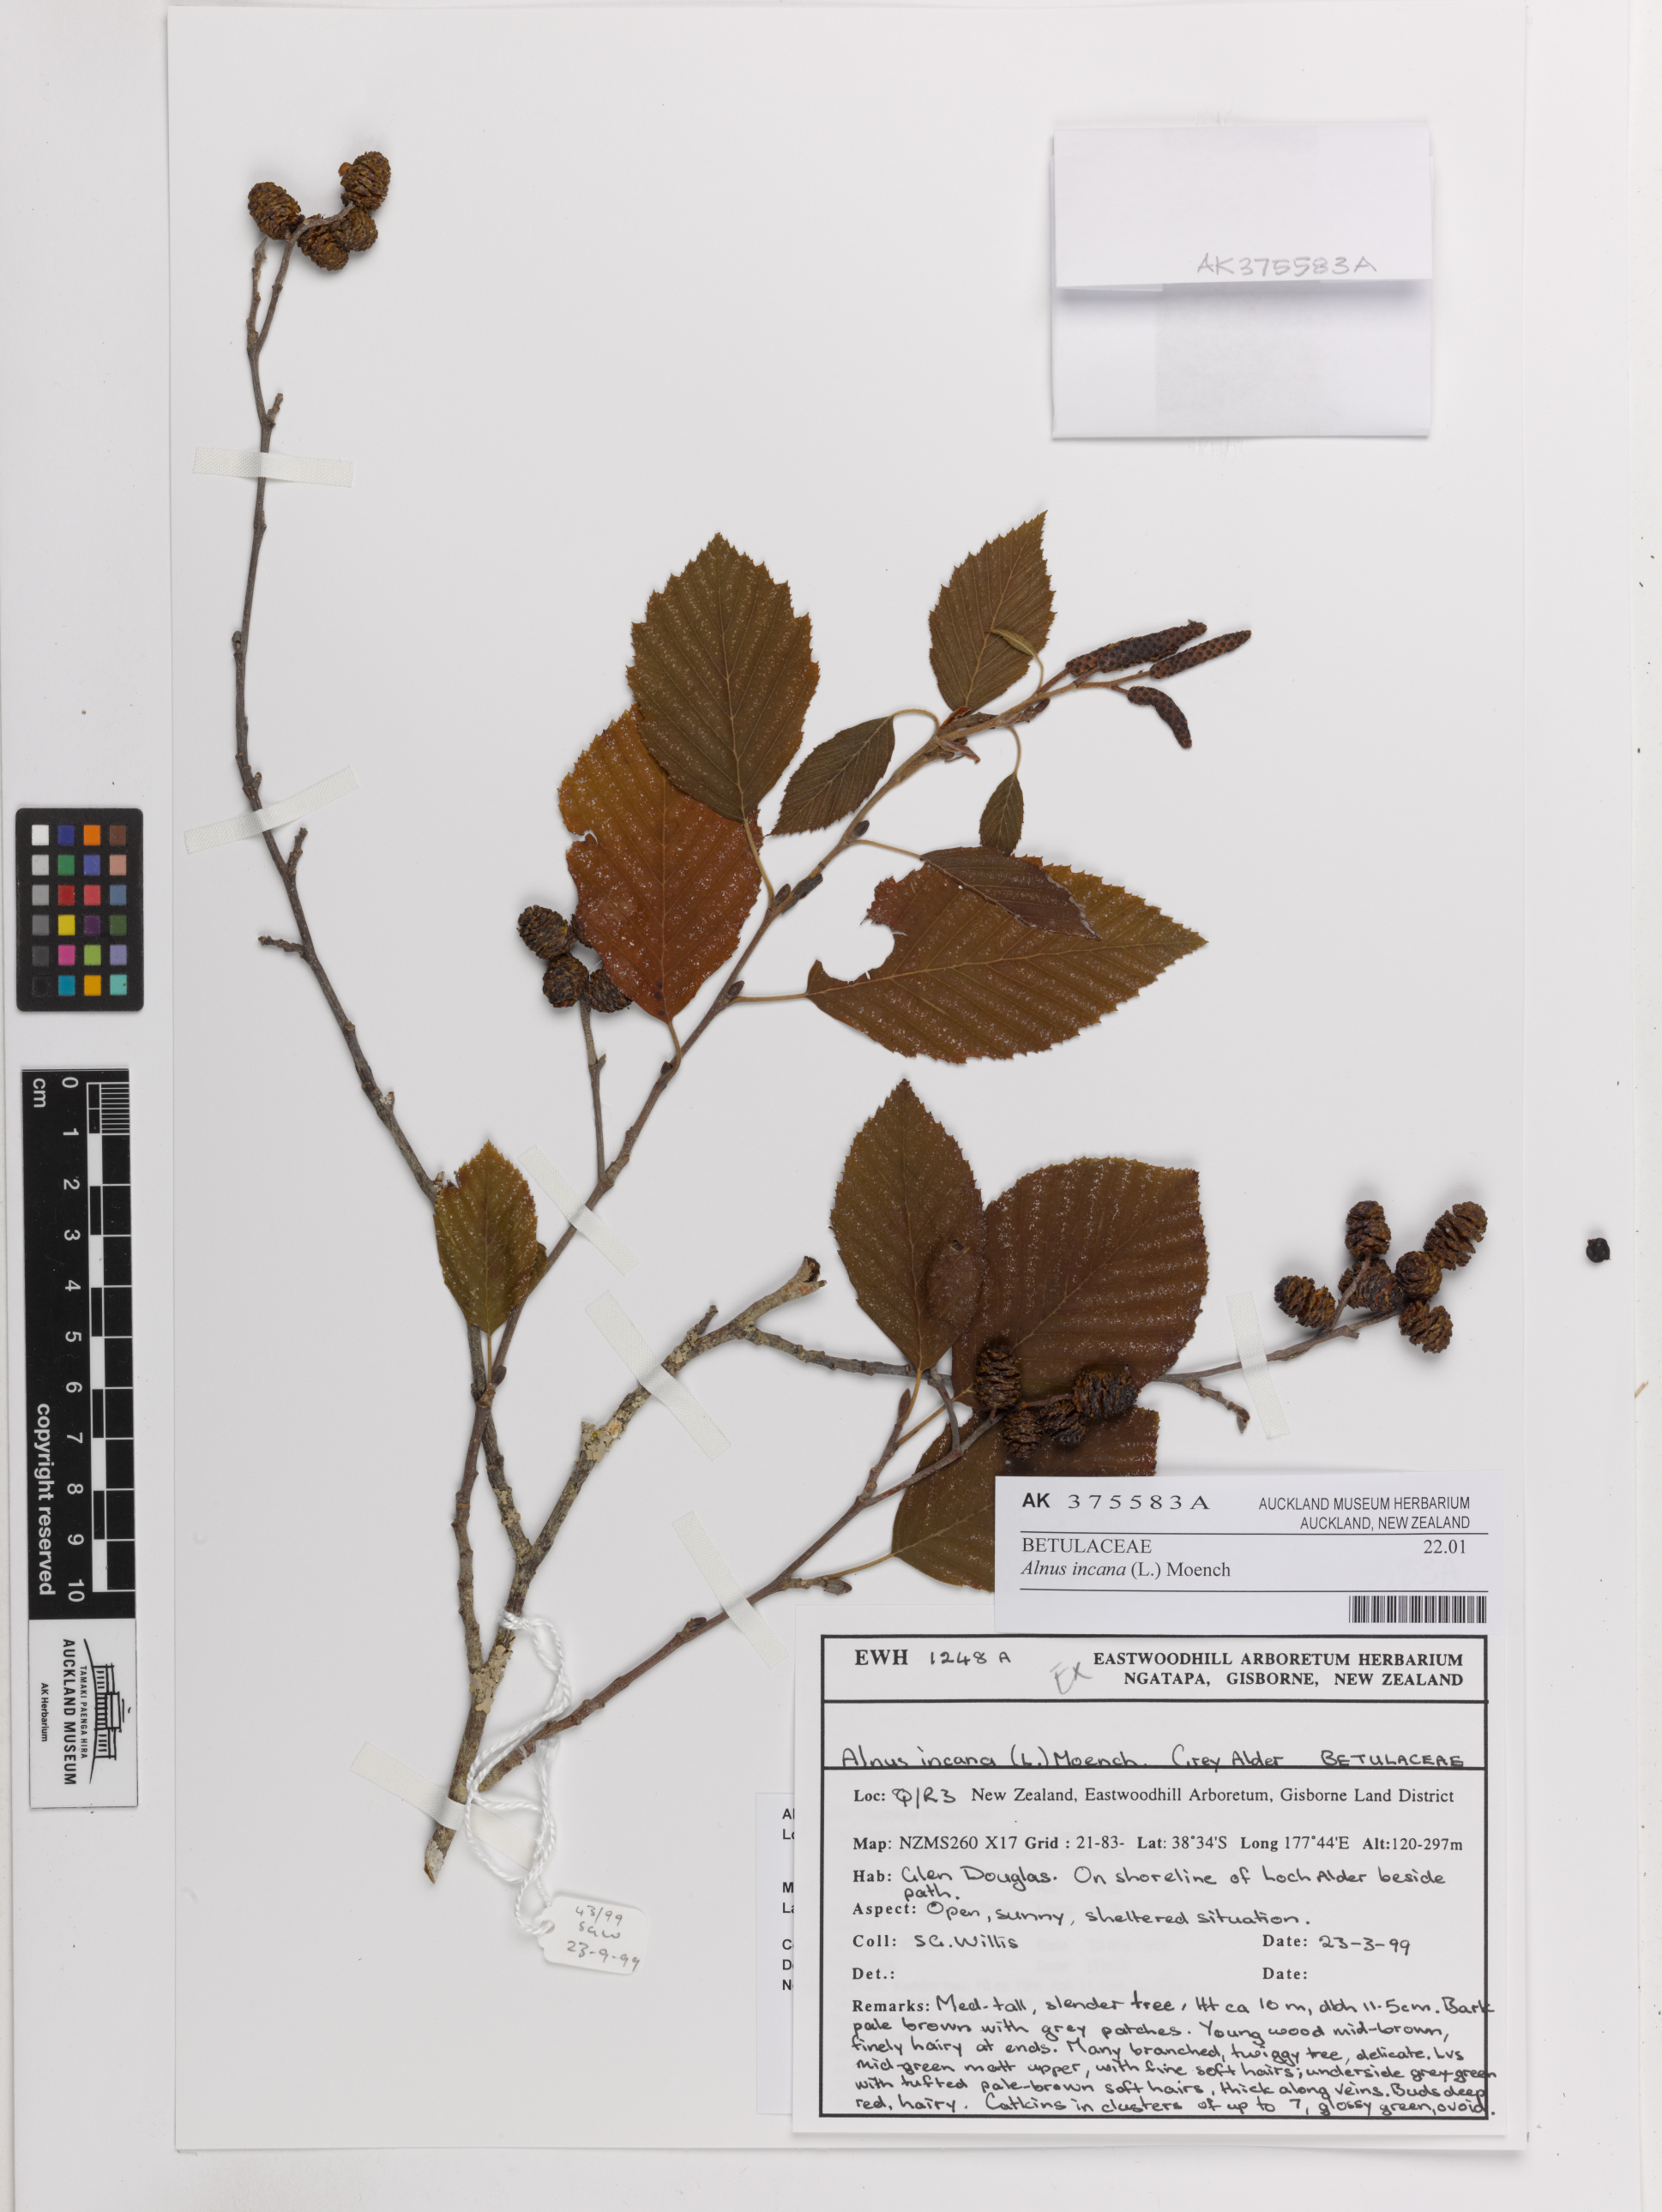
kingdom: Plantae
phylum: Tracheophyta
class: Magnoliopsida
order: Fagales
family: Betulaceae
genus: Alnus
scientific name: Alnus incana
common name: Grey alder
